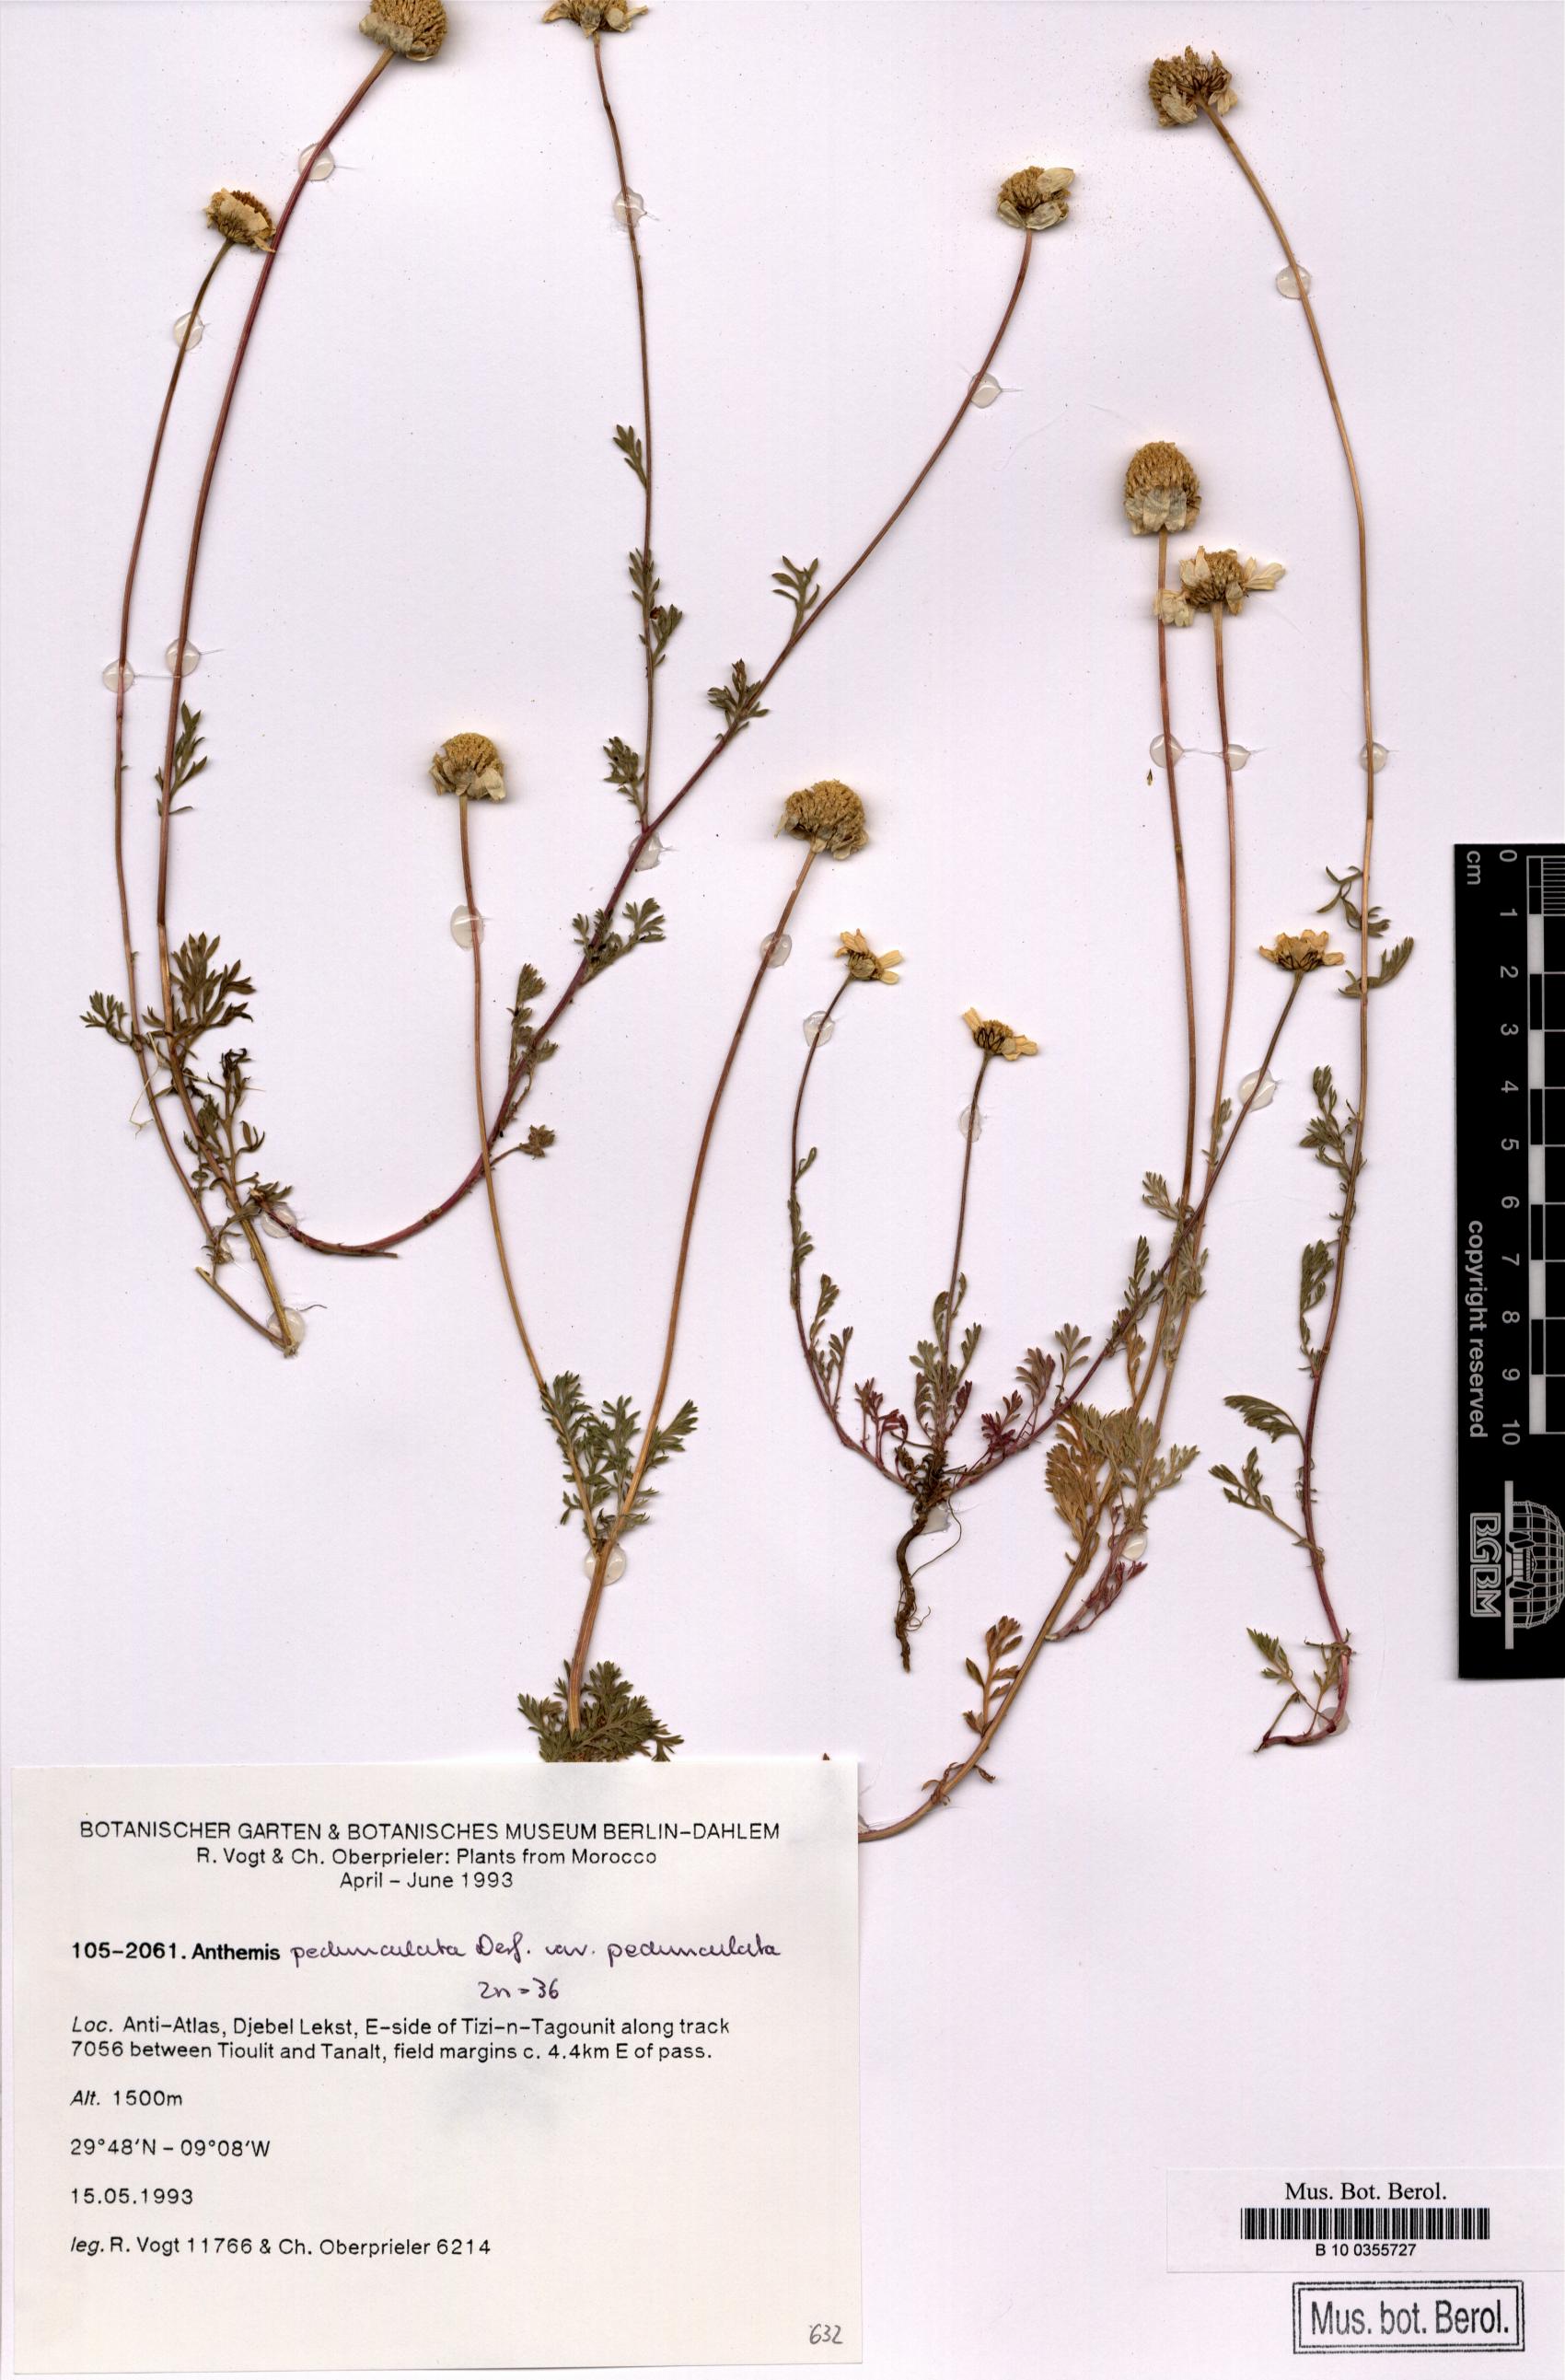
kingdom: Plantae
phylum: Tracheophyta
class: Magnoliopsida
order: Asterales
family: Asteraceae
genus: Anthemis
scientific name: Anthemis pedunculata
